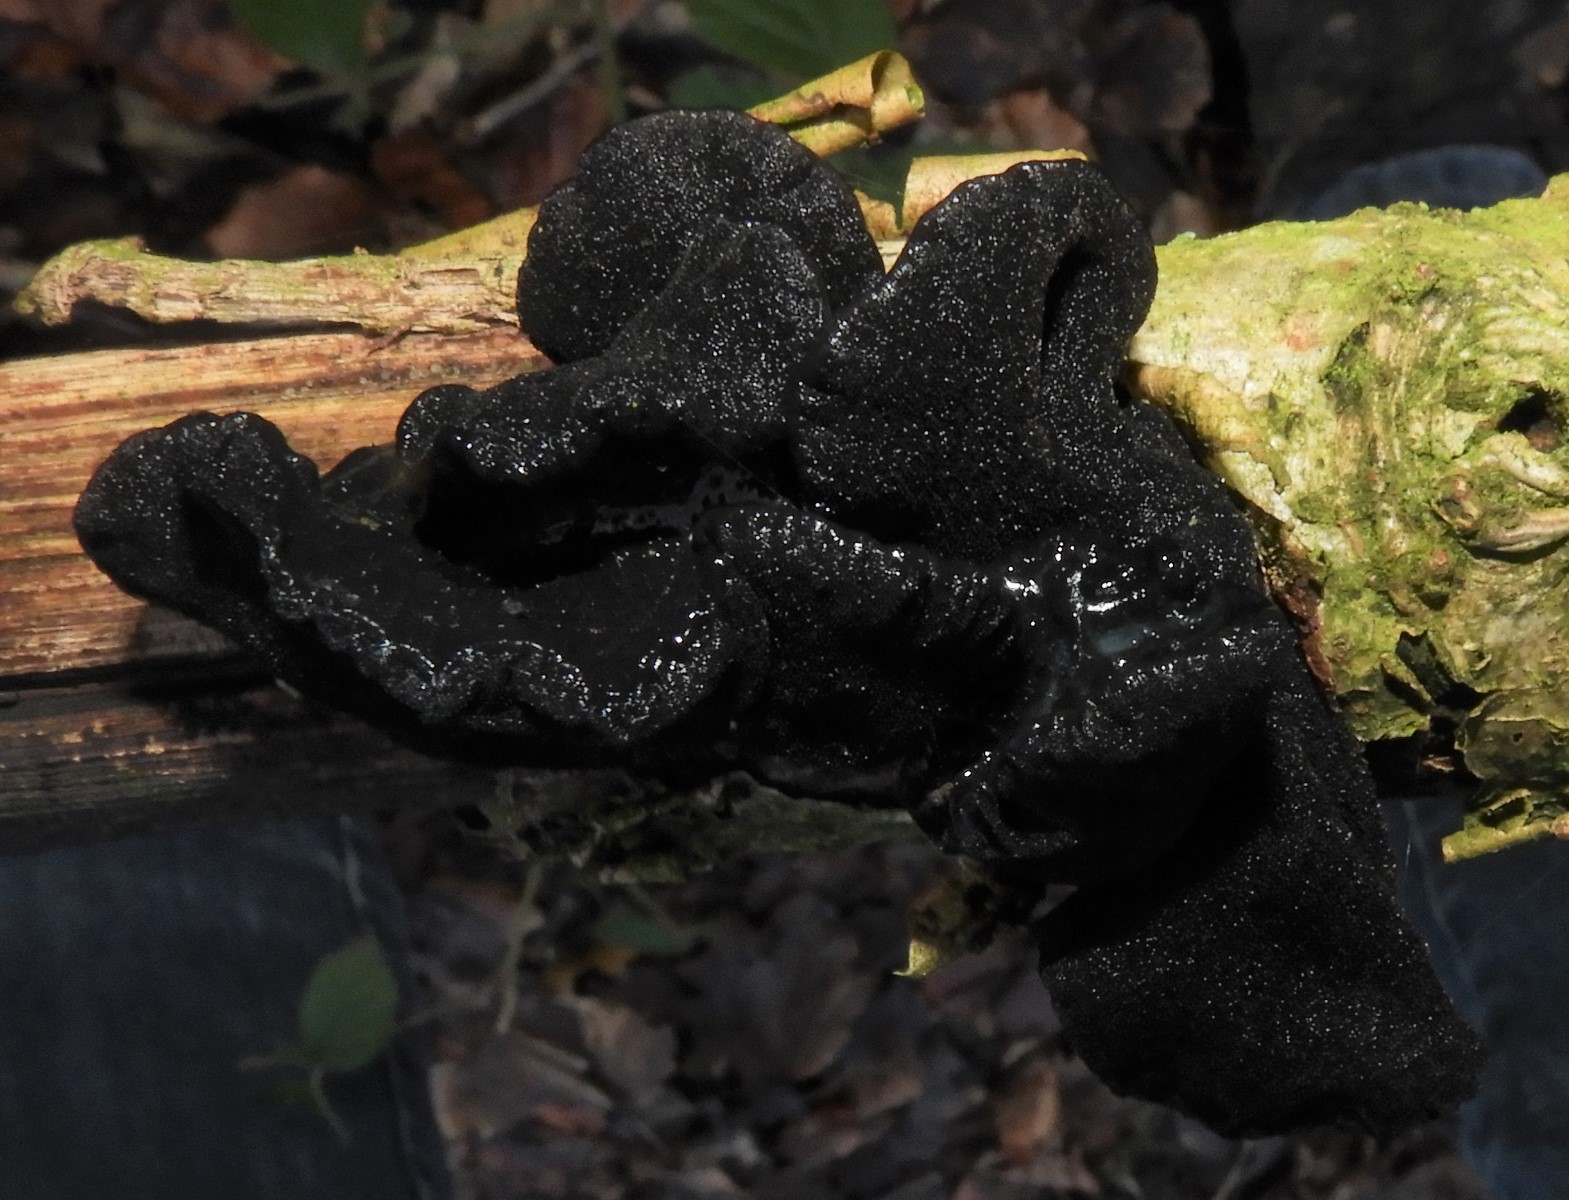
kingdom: Fungi
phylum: Basidiomycota
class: Agaricomycetes
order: Auriculariales
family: Auriculariaceae
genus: Exidia
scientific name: Exidia glandulosa
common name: ege-bævretop
